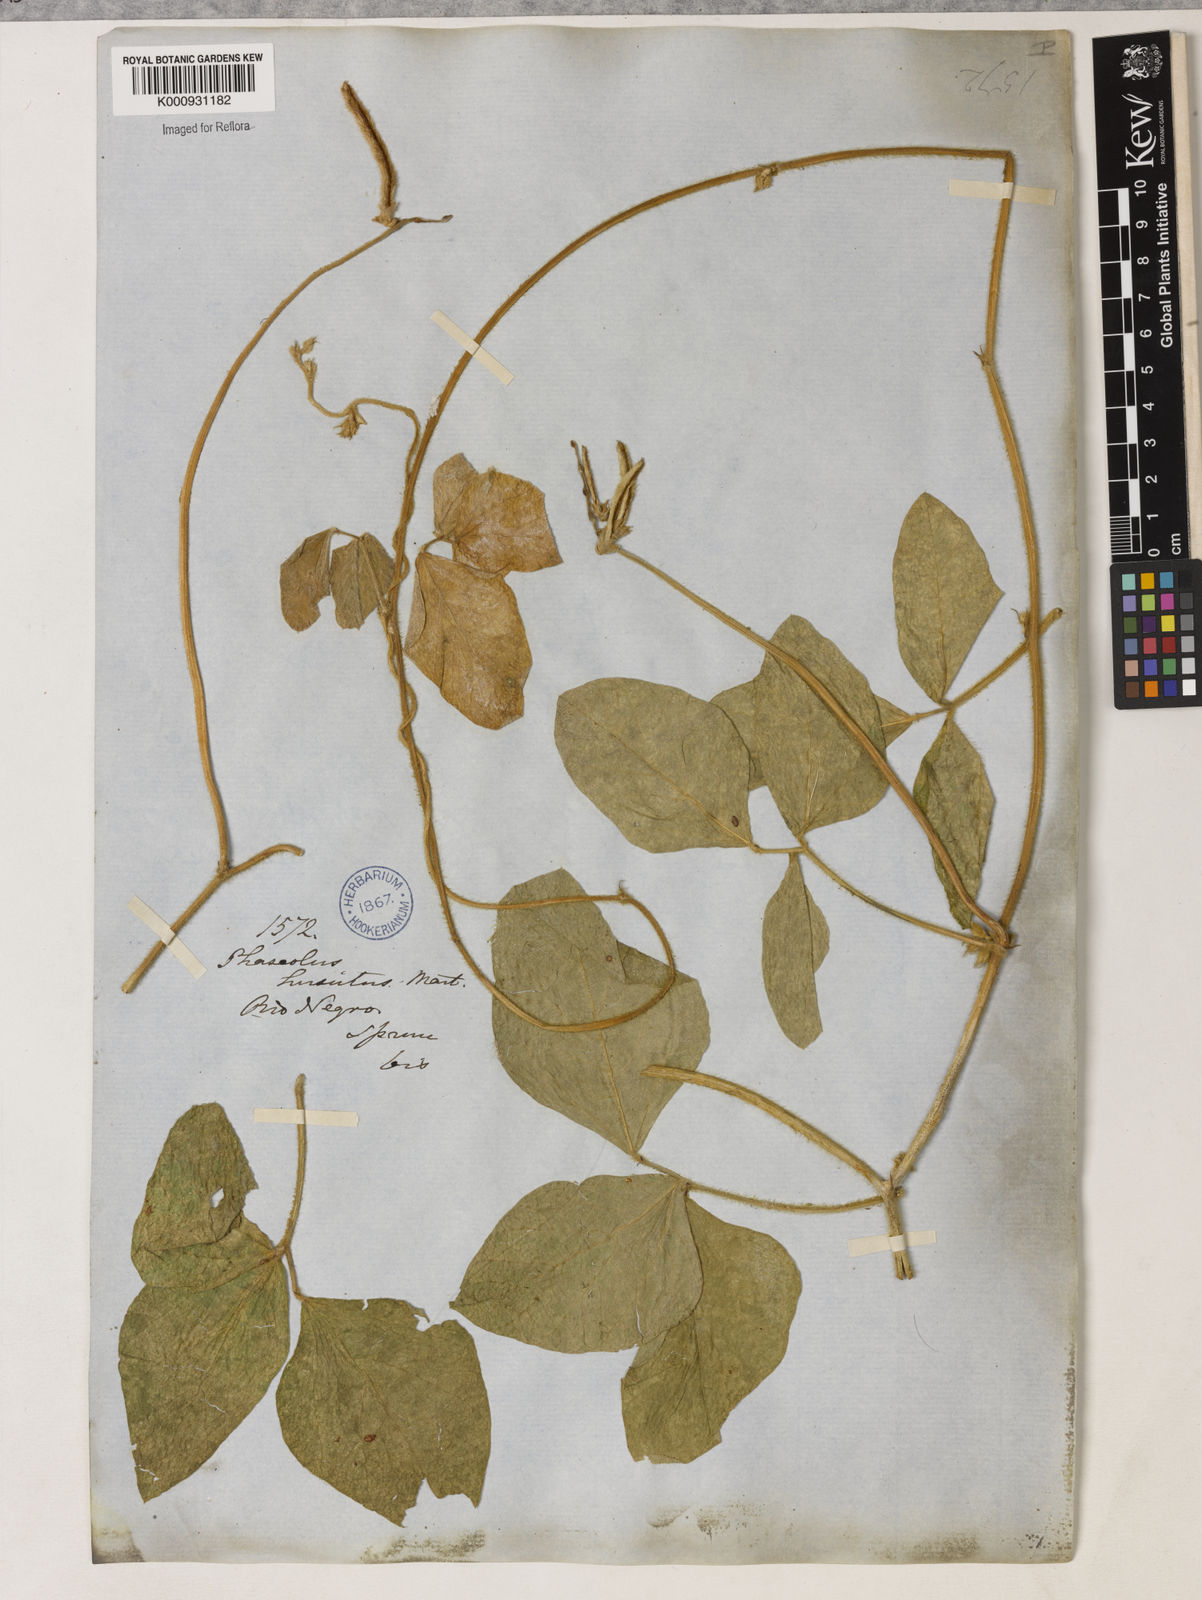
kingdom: Plantae
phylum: Tracheophyta
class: Magnoliopsida
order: Fabales
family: Fabaceae
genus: Vigna
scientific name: Vigna lasiocarpa
